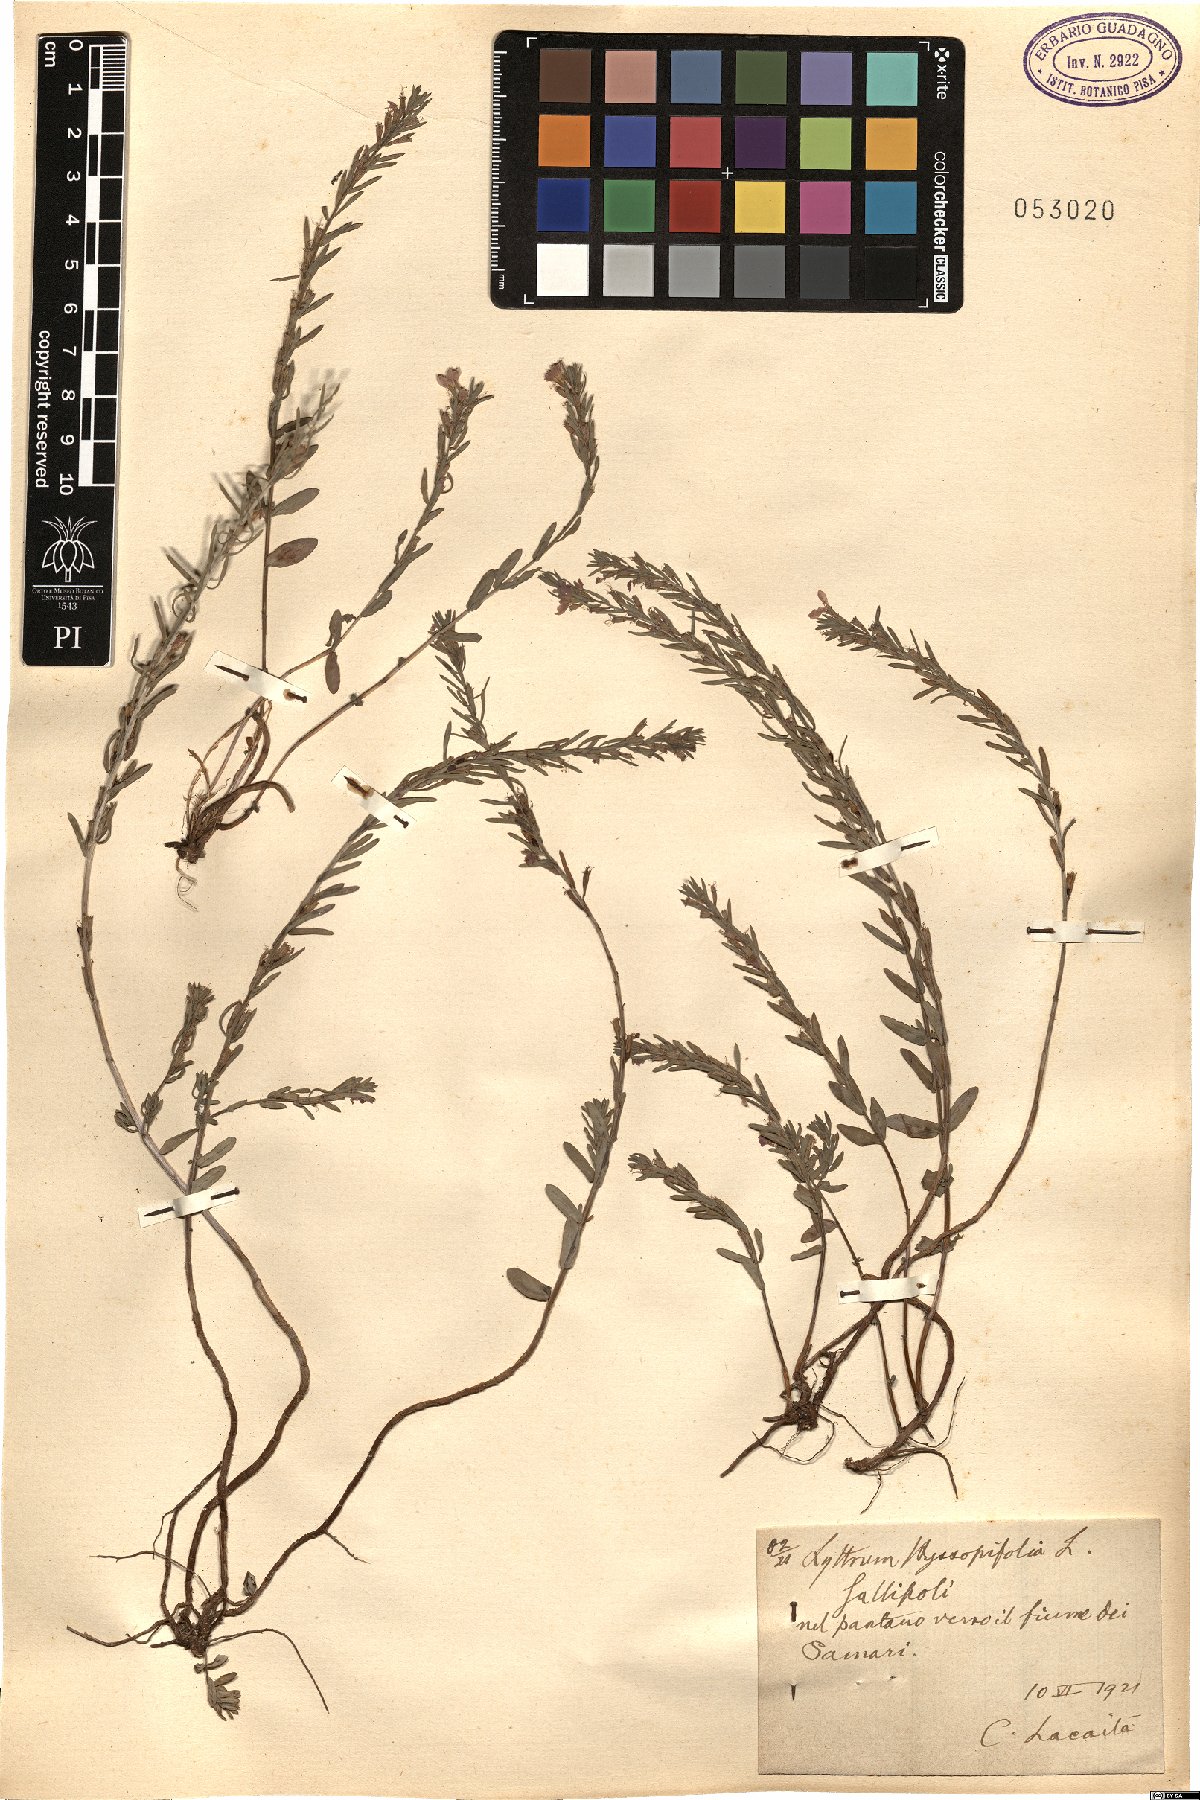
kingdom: Plantae
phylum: Tracheophyta
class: Magnoliopsida
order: Myrtales
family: Lythraceae
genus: Lythrum
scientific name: Lythrum hyssopifolia
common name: Grass-poly
